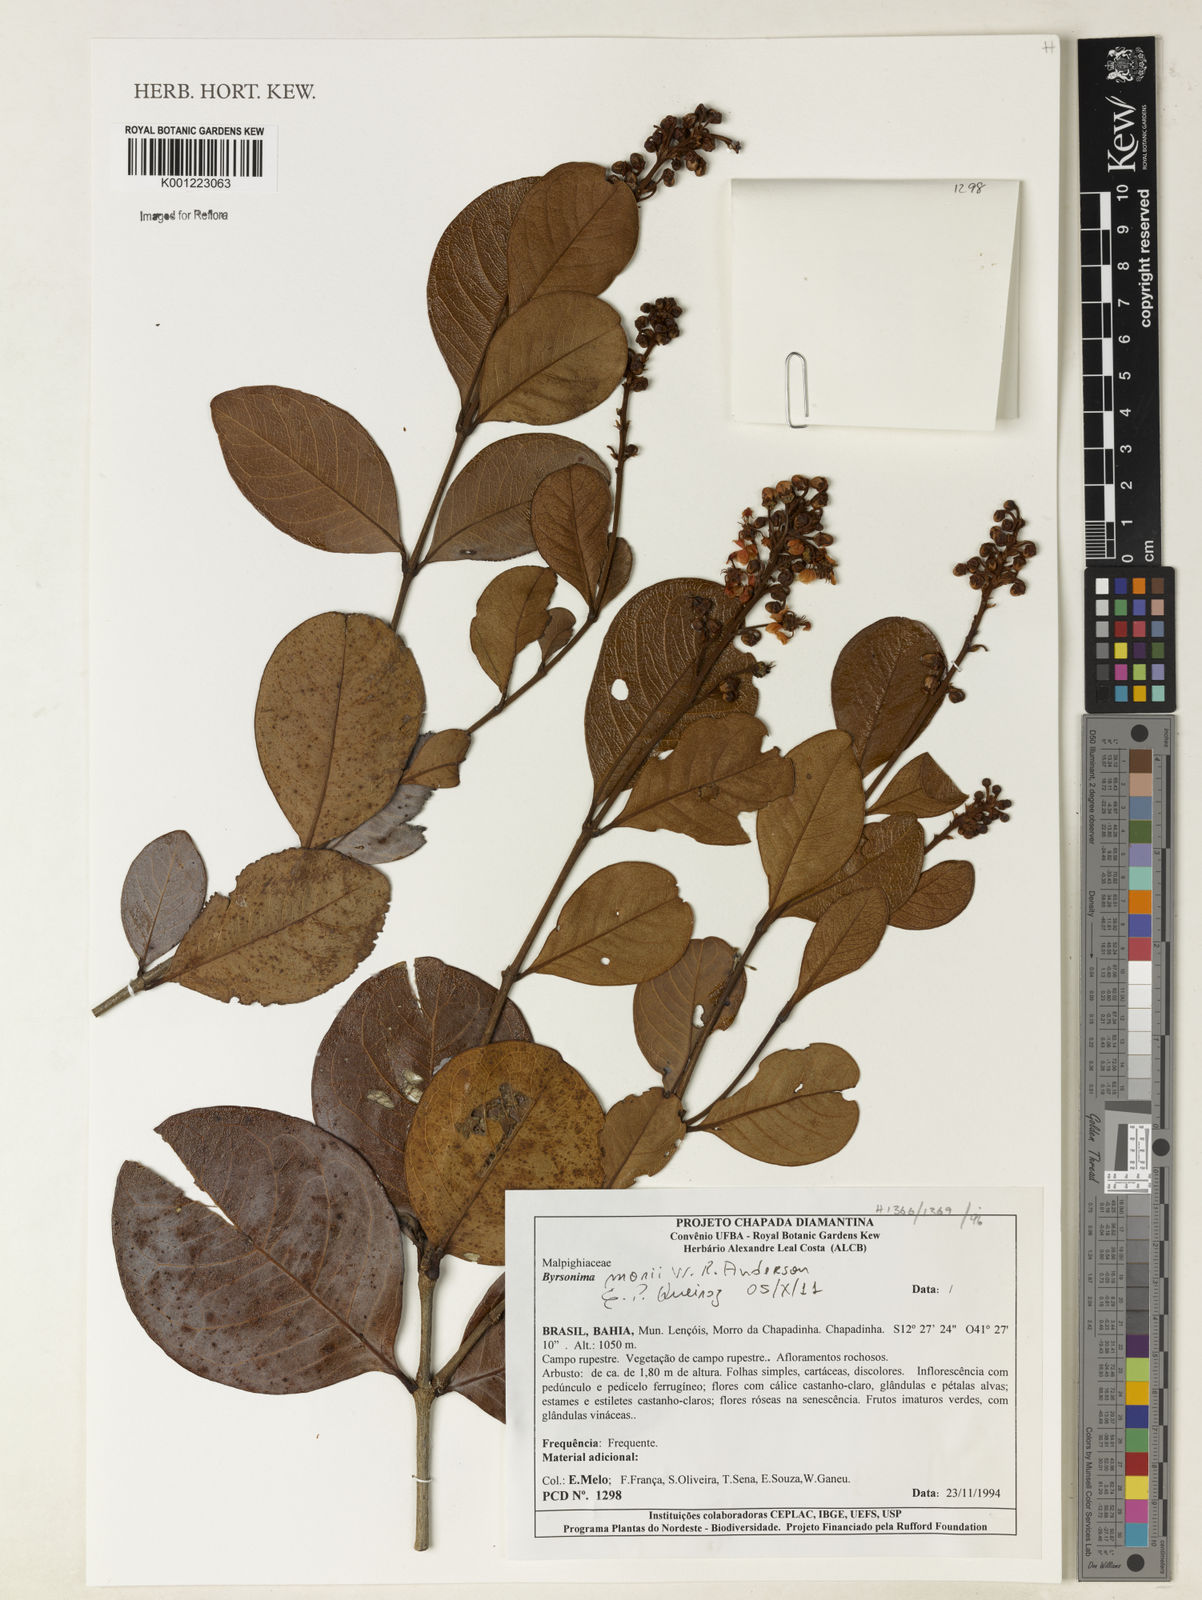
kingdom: Plantae
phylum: Tracheophyta
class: Magnoliopsida
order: Malpighiales
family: Malpighiaceae
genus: Byrsonima
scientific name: Byrsonima morii
